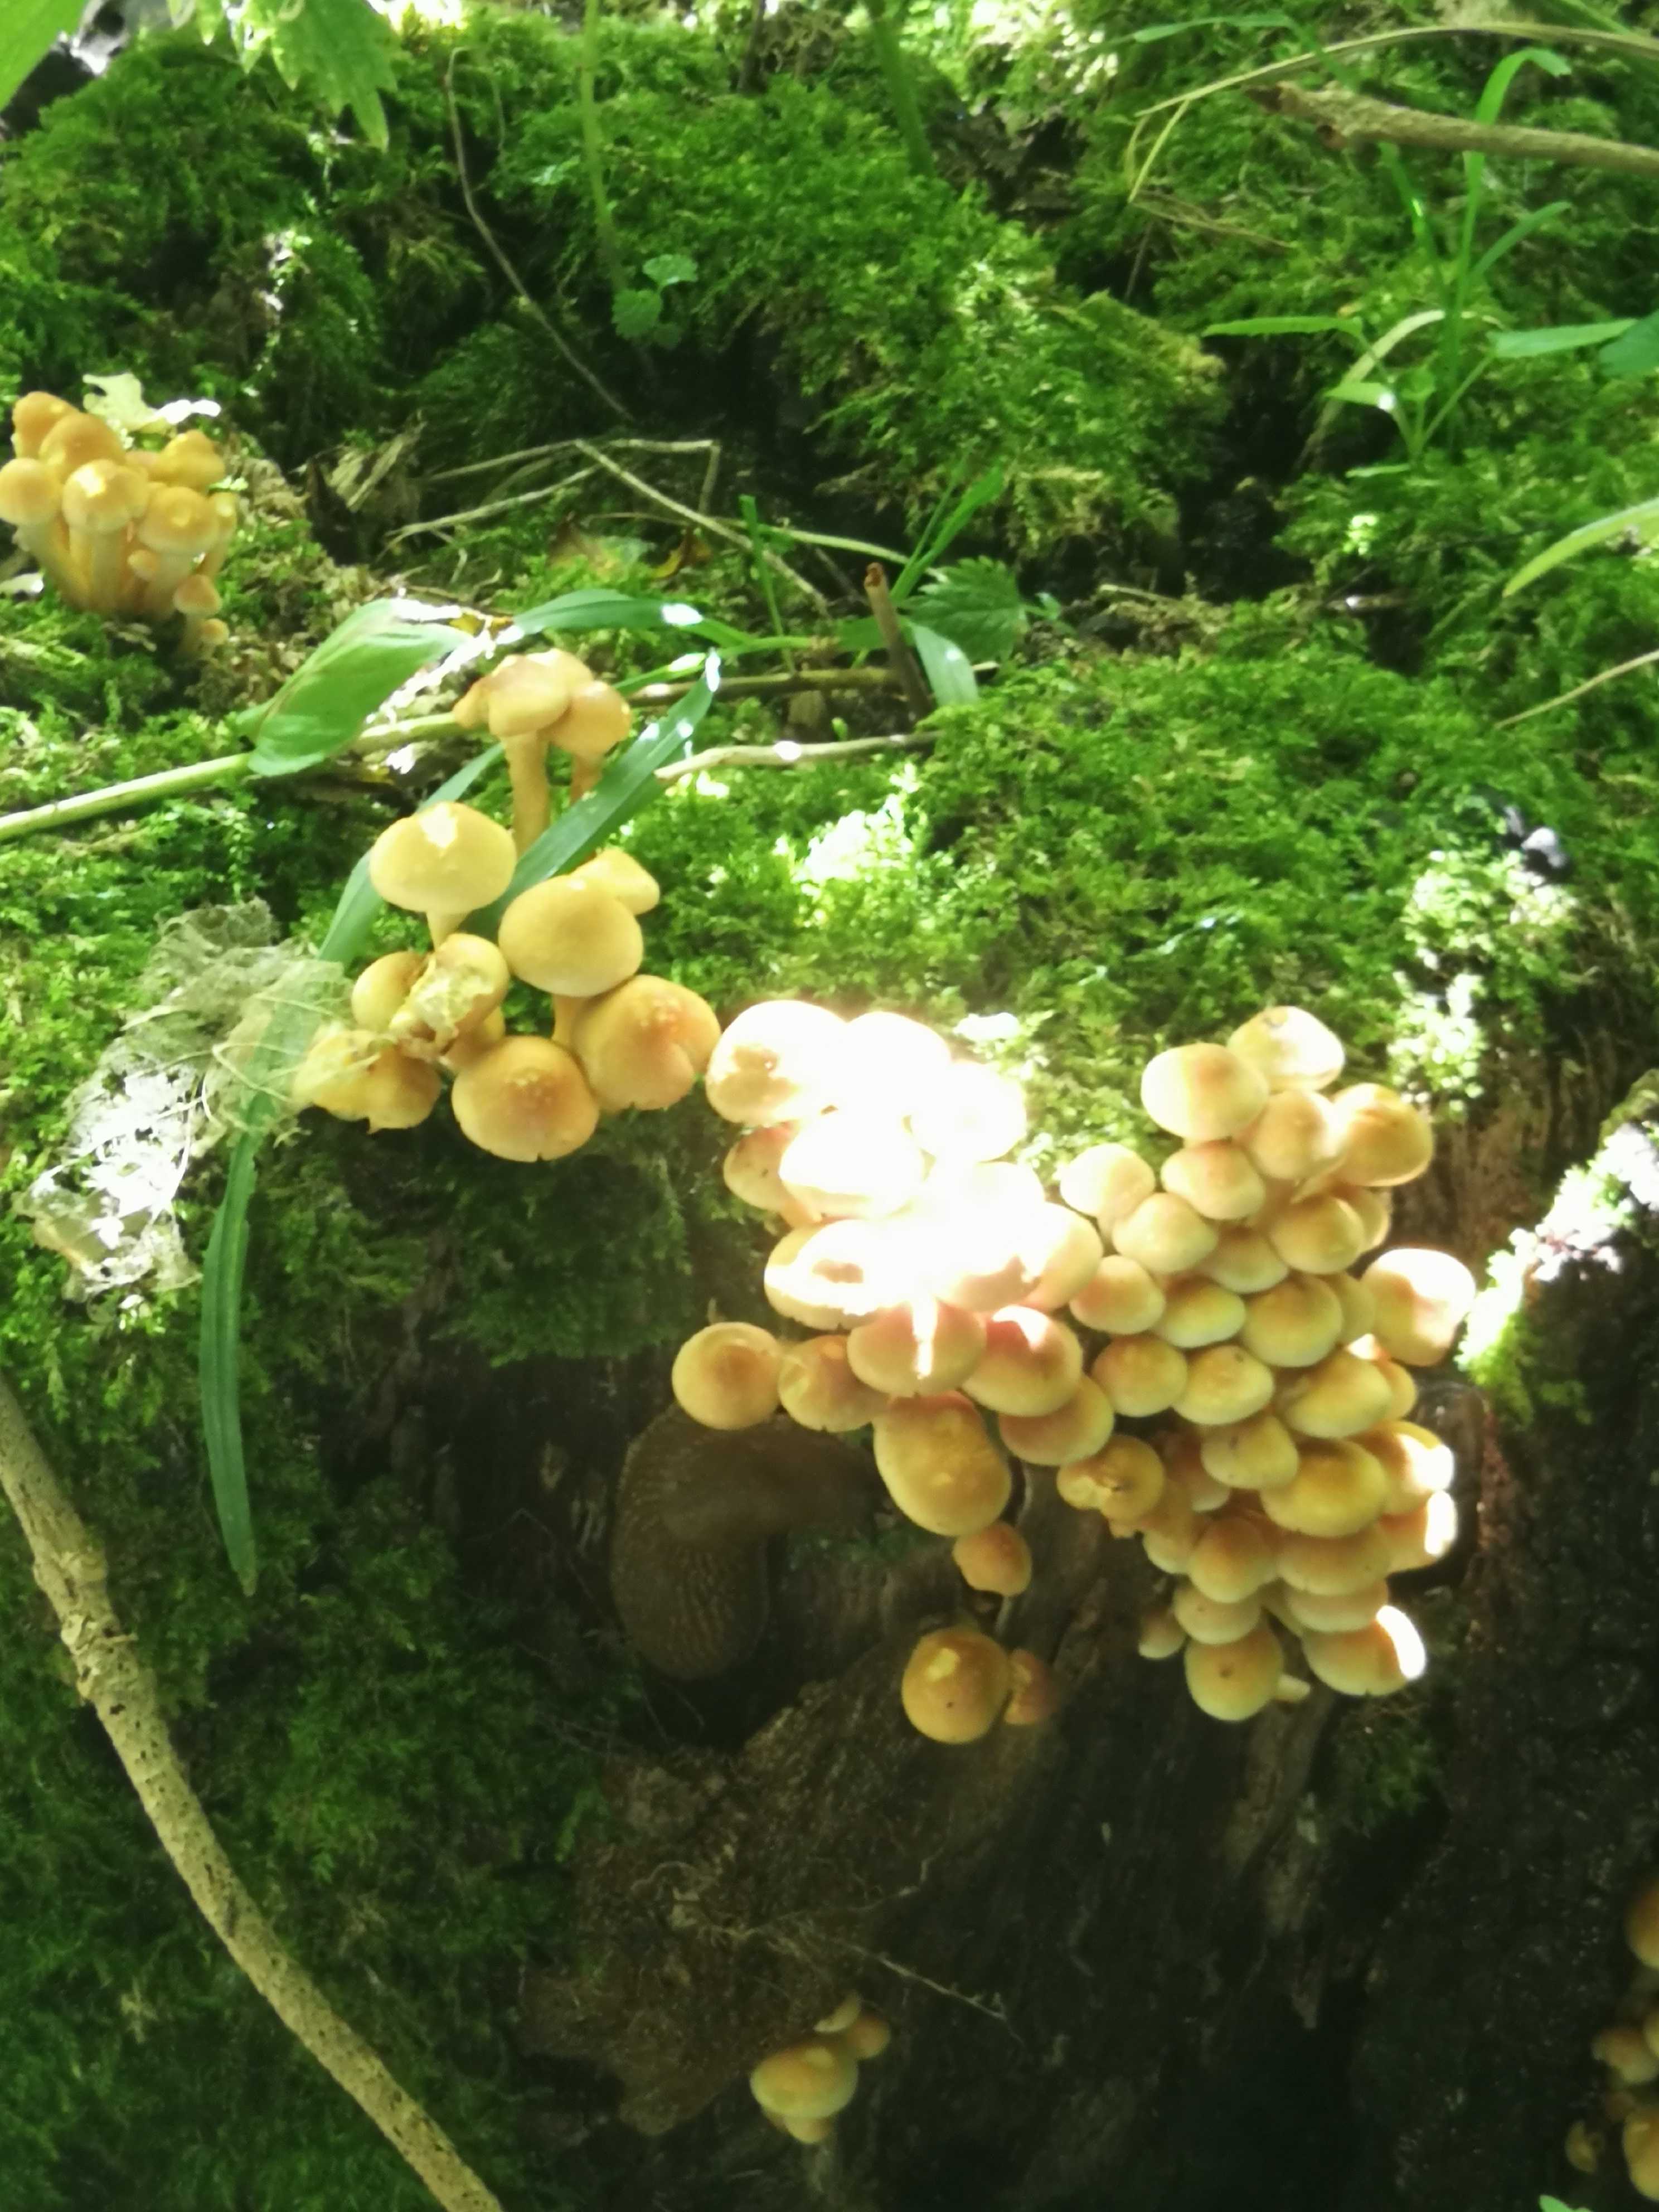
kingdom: Fungi
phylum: Basidiomycota
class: Agaricomycetes
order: Agaricales
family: Strophariaceae
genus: Hypholoma
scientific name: Hypholoma fasciculare
